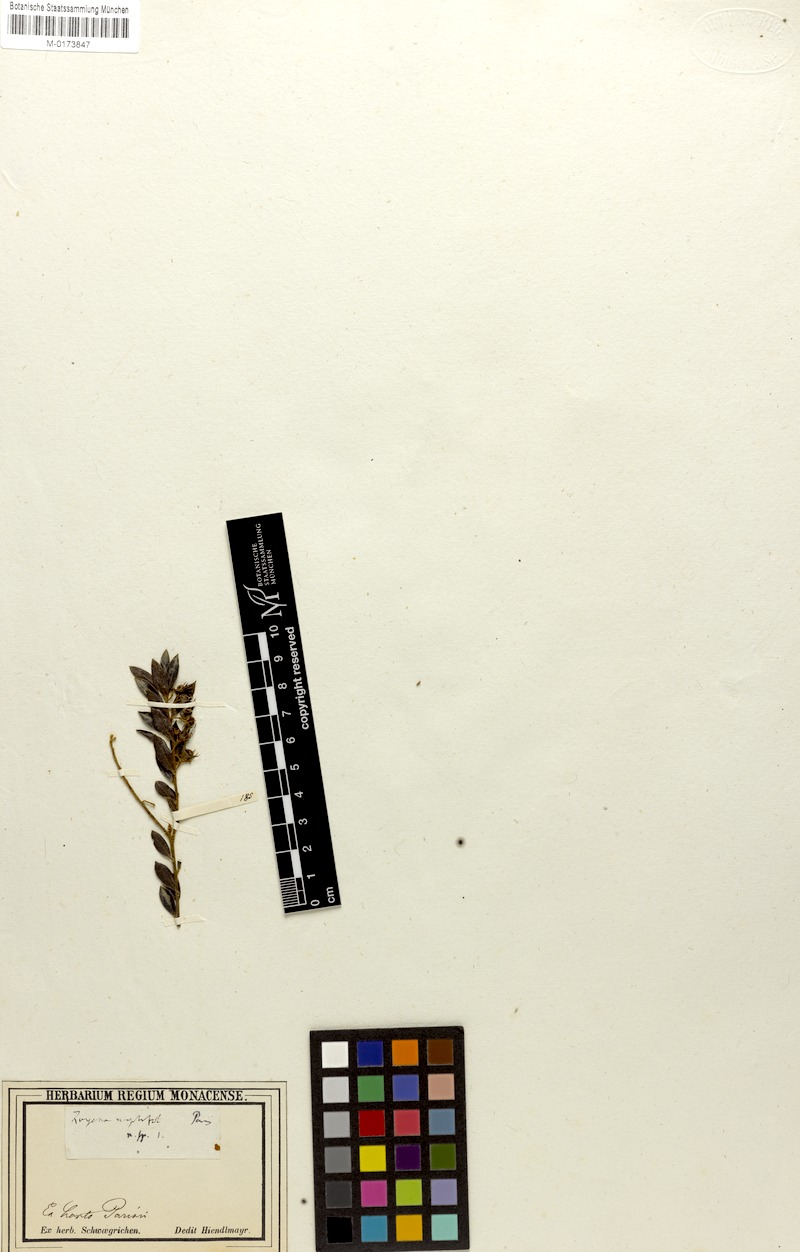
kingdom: Plantae
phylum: Tracheophyta
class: Magnoliopsida
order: Ericales
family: Ebenaceae
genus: Diospyros
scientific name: Diospyros glabra
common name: Fynbos star apple
